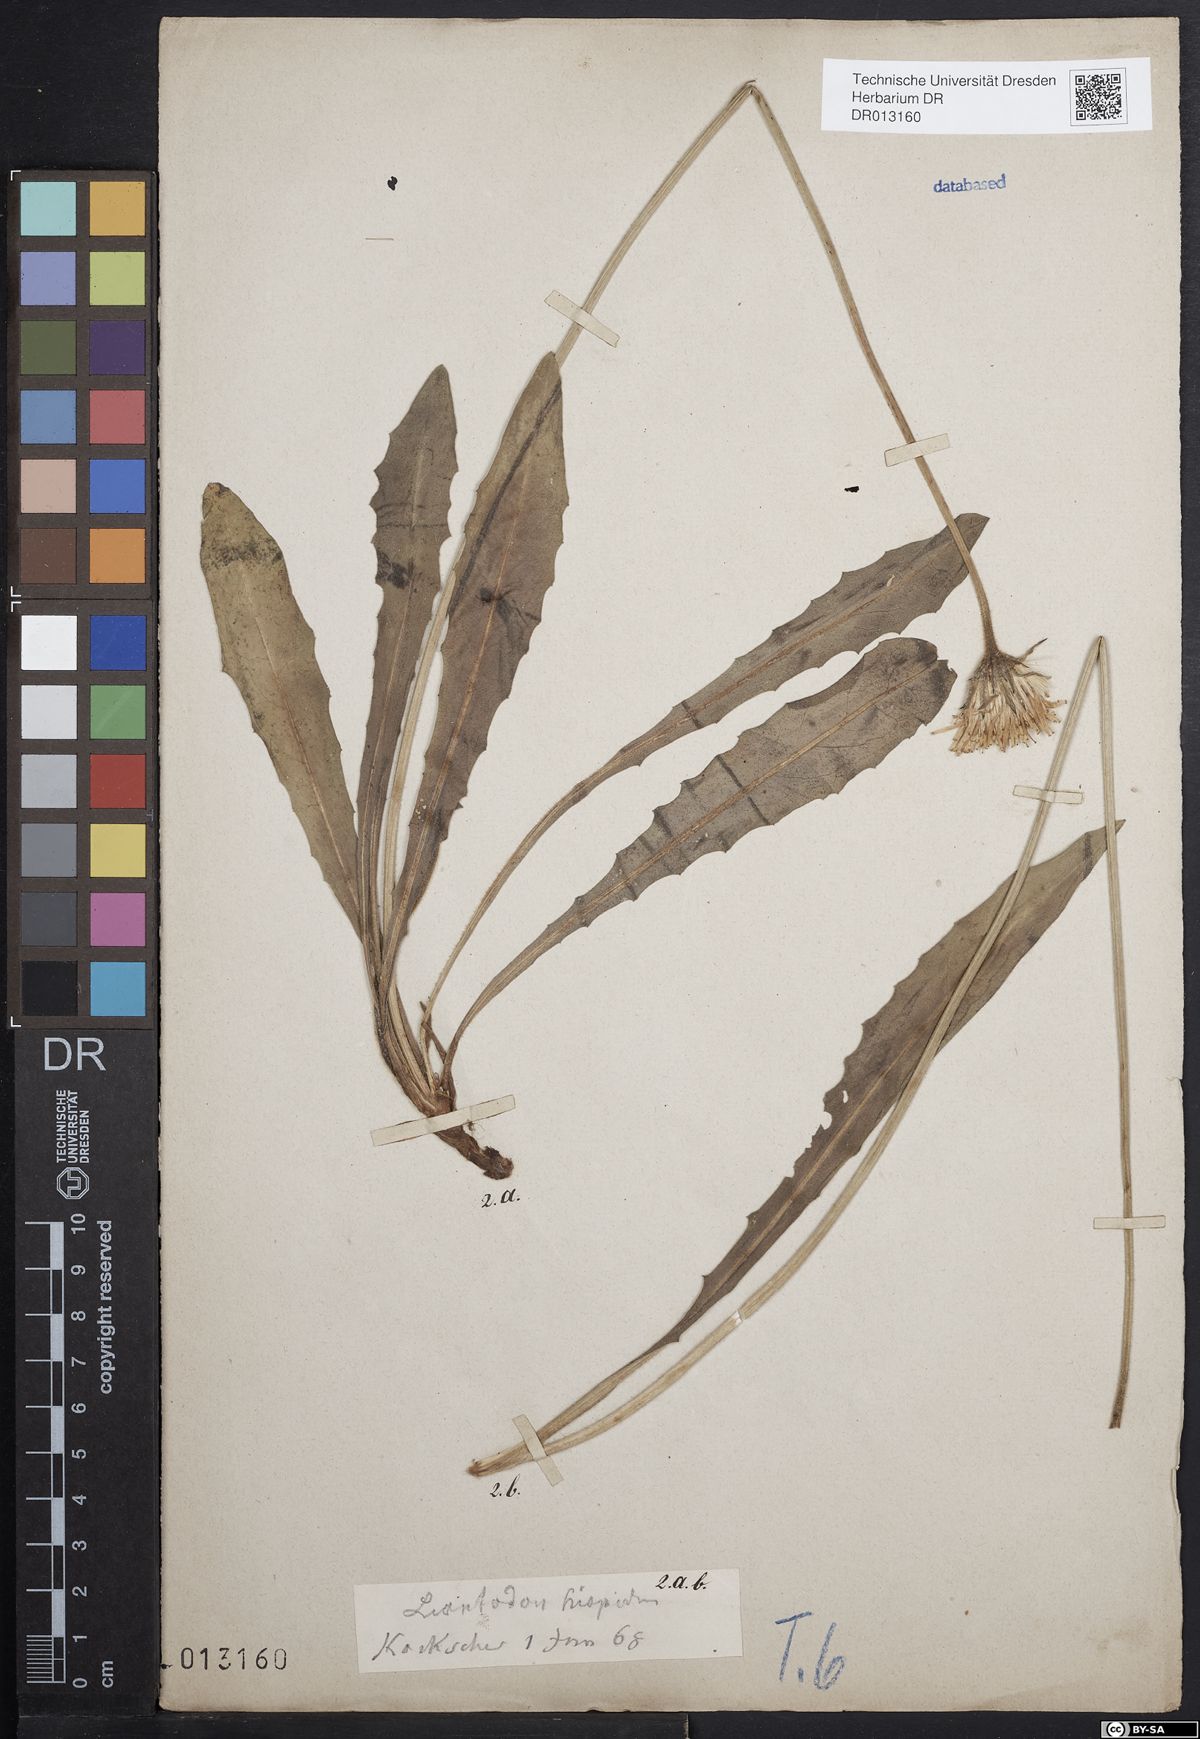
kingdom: Plantae
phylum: Tracheophyta
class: Magnoliopsida
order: Asterales
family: Asteraceae
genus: Leontodon
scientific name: Leontodon hispidus
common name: Rough hawkbit
